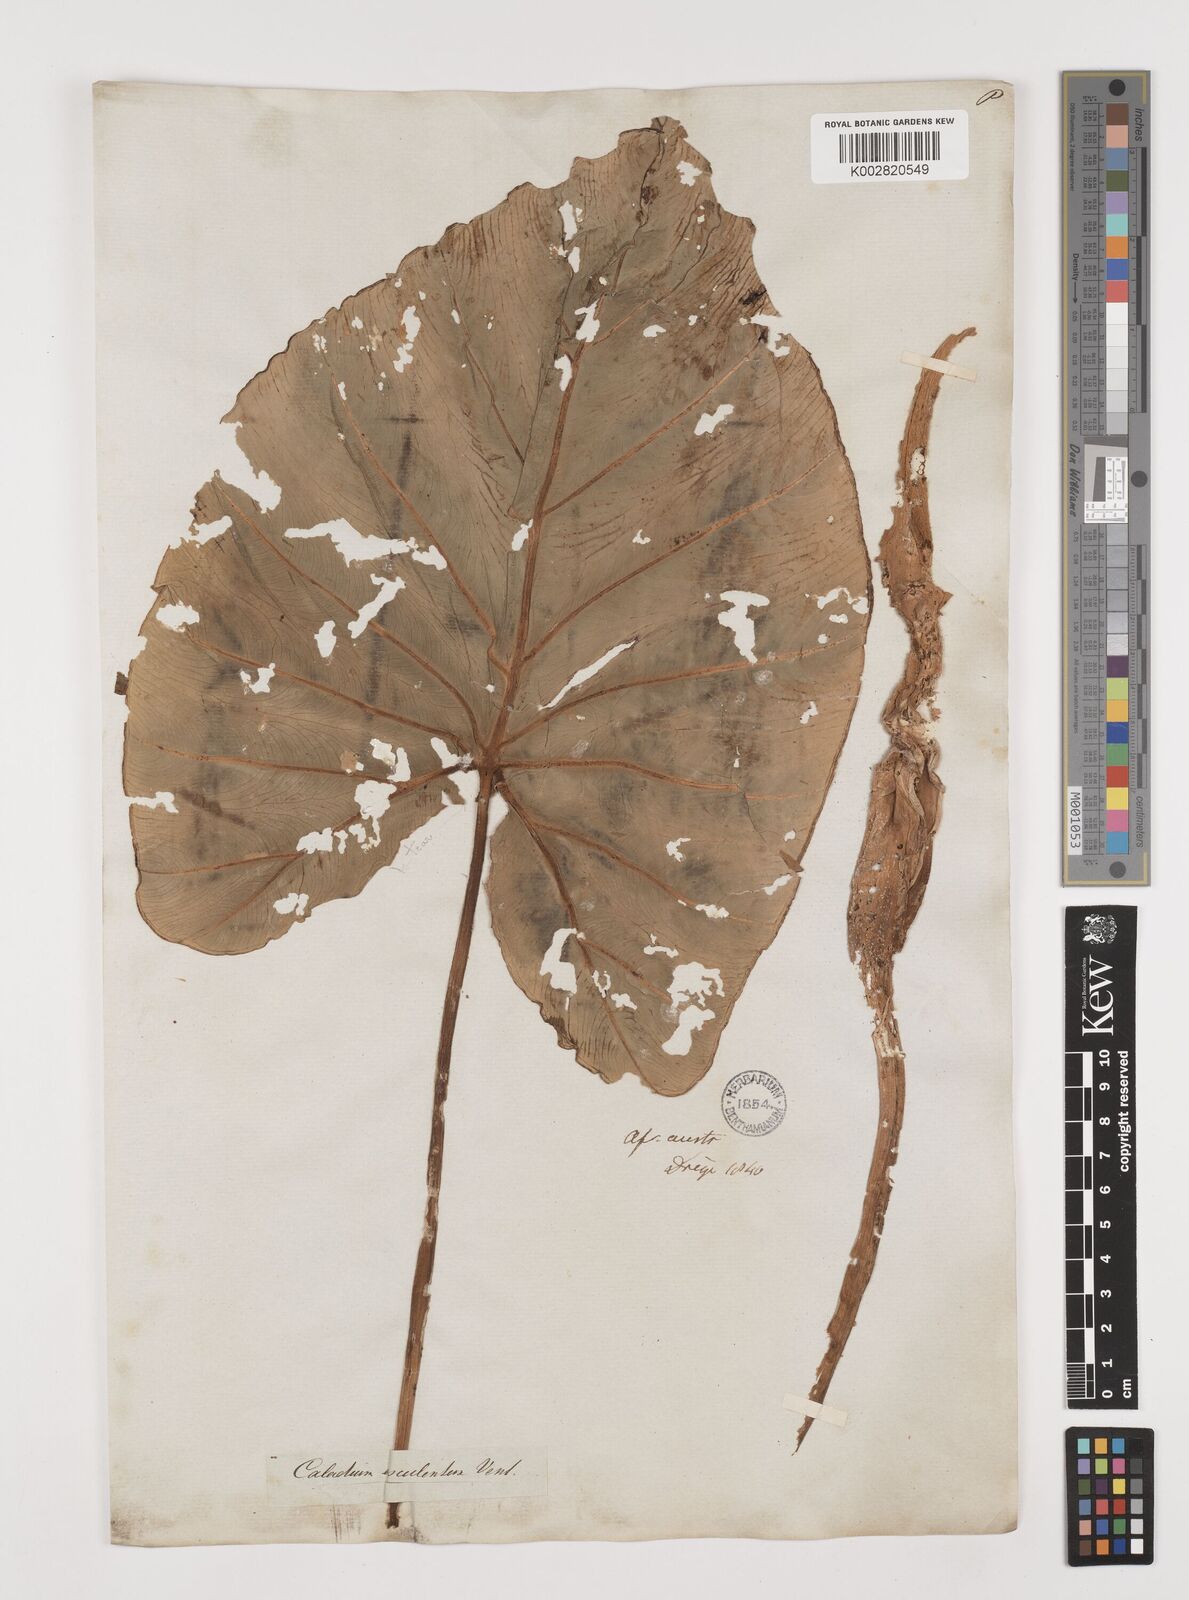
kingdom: Plantae
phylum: Tracheophyta
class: Liliopsida
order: Alismatales
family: Araceae
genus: Colocasia
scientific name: Colocasia esculenta
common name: Taro
